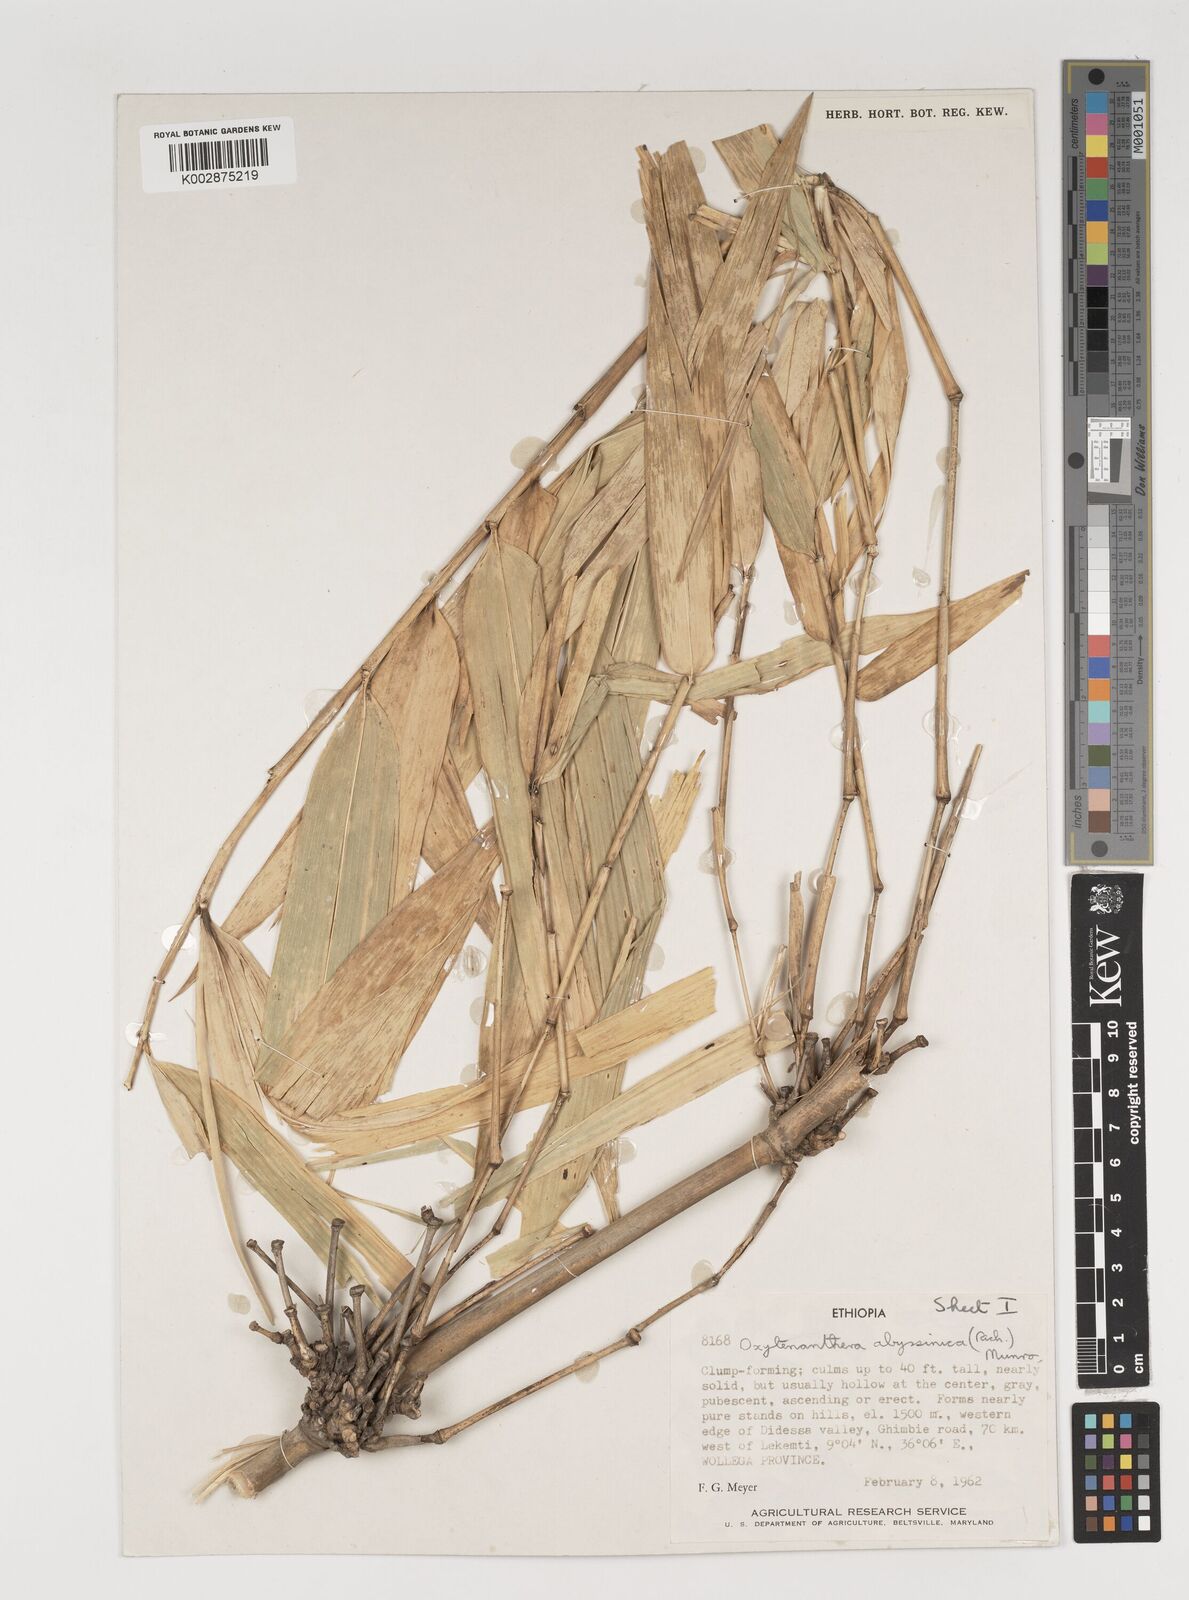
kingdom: Plantae
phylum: Tracheophyta
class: Liliopsida
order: Poales
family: Poaceae
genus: Oxytenanthera
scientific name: Oxytenanthera abyssinica
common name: Wine bamboo
